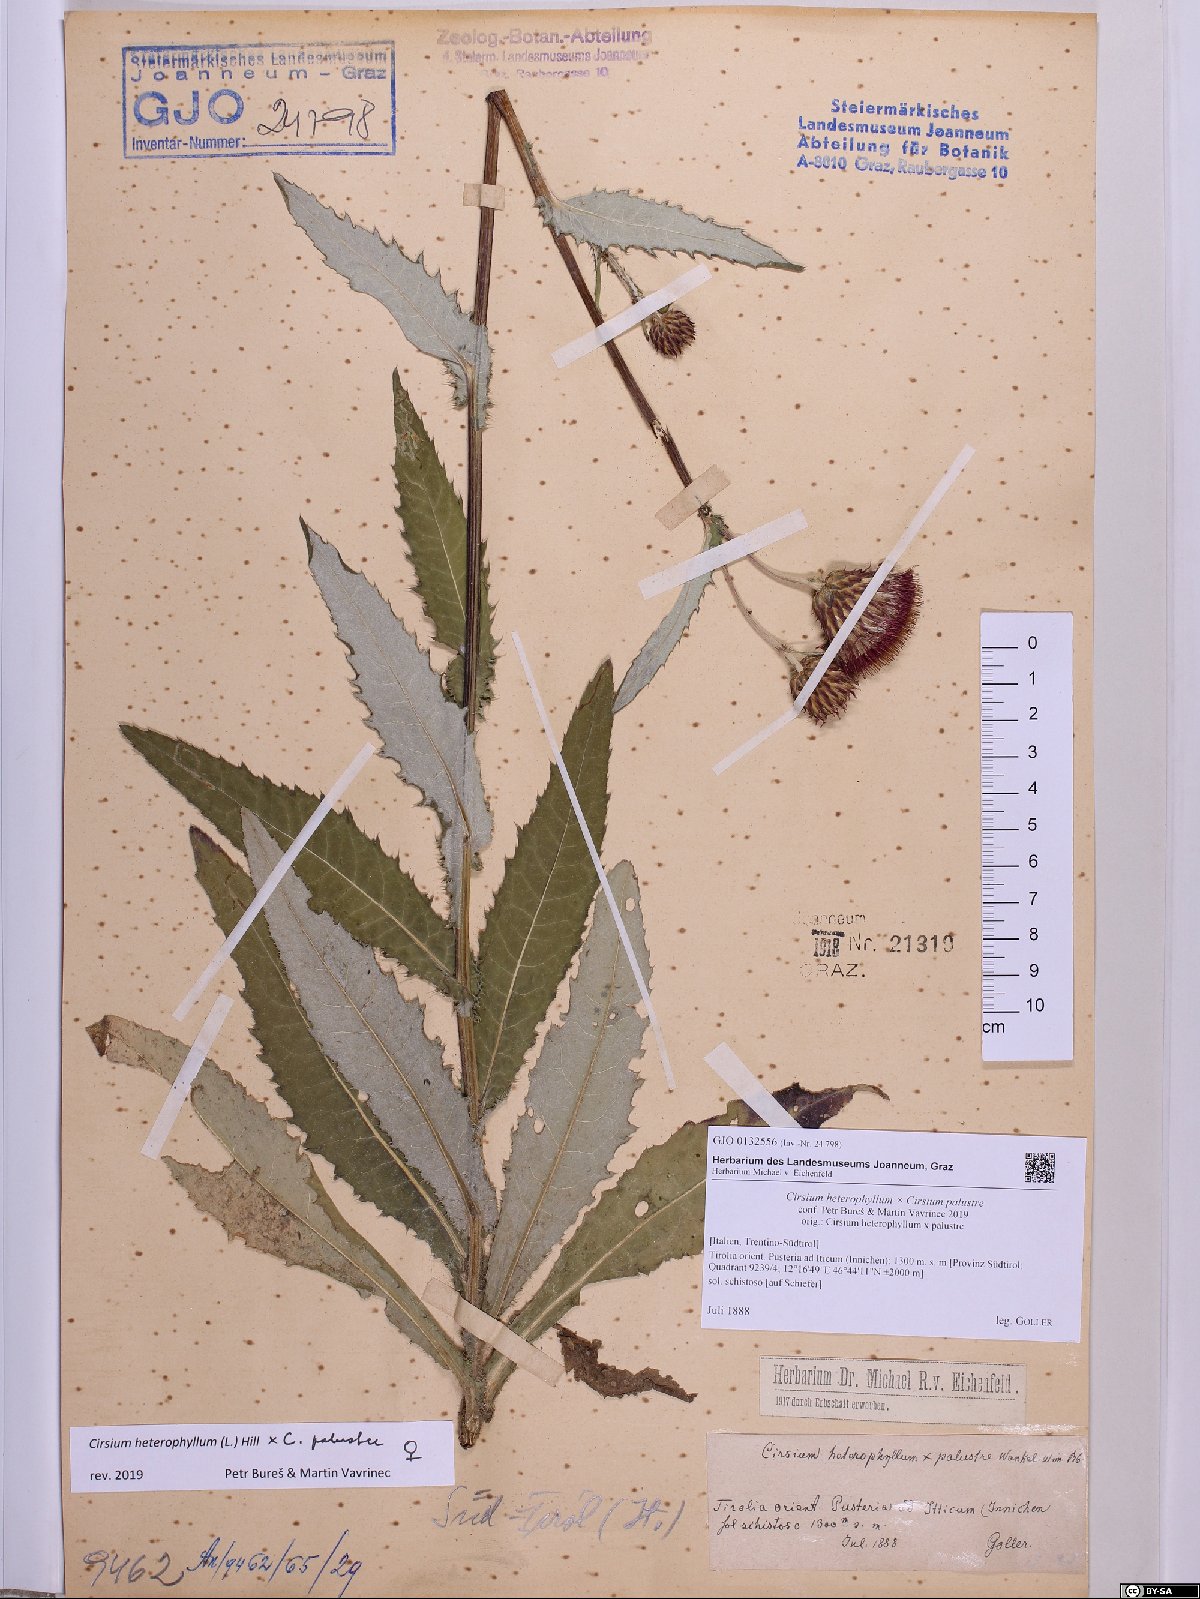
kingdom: Plantae
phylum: Tracheophyta
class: Magnoliopsida
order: Asterales
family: Asteraceae
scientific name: Asteraceae
